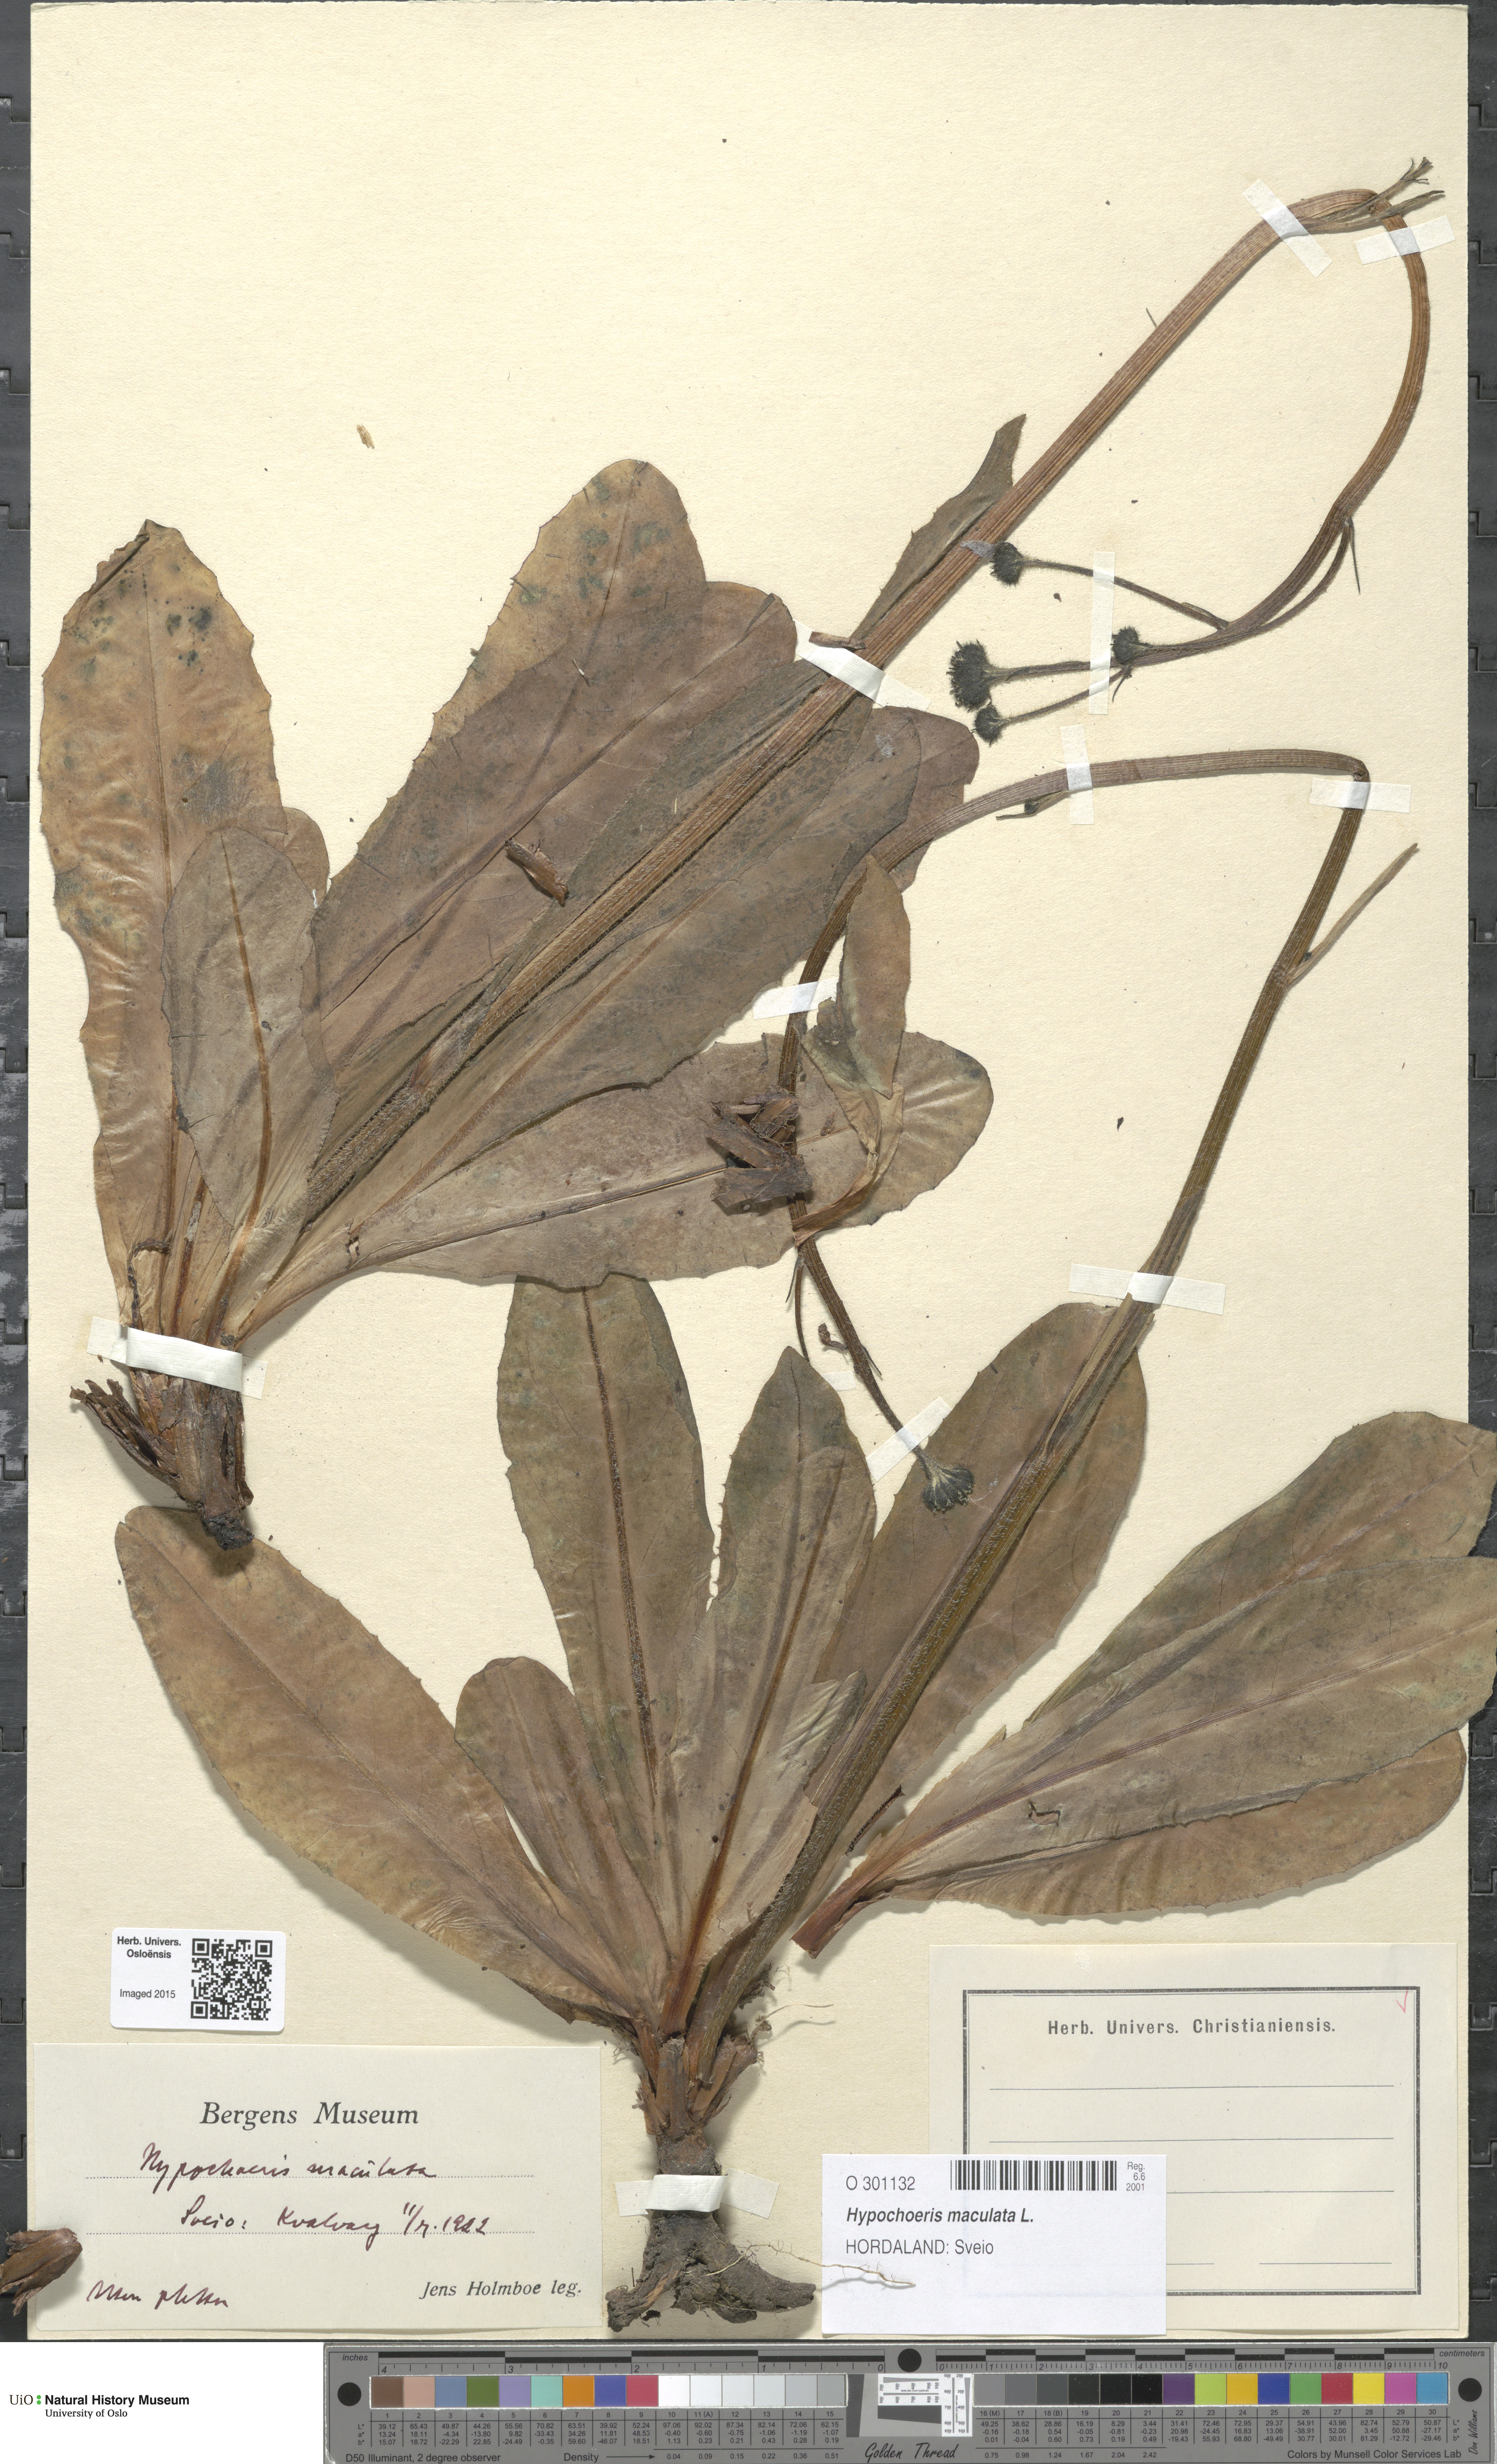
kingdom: Plantae
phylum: Tracheophyta
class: Magnoliopsida
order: Asterales
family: Asteraceae
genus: Trommsdorffia
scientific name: Trommsdorffia maculata
